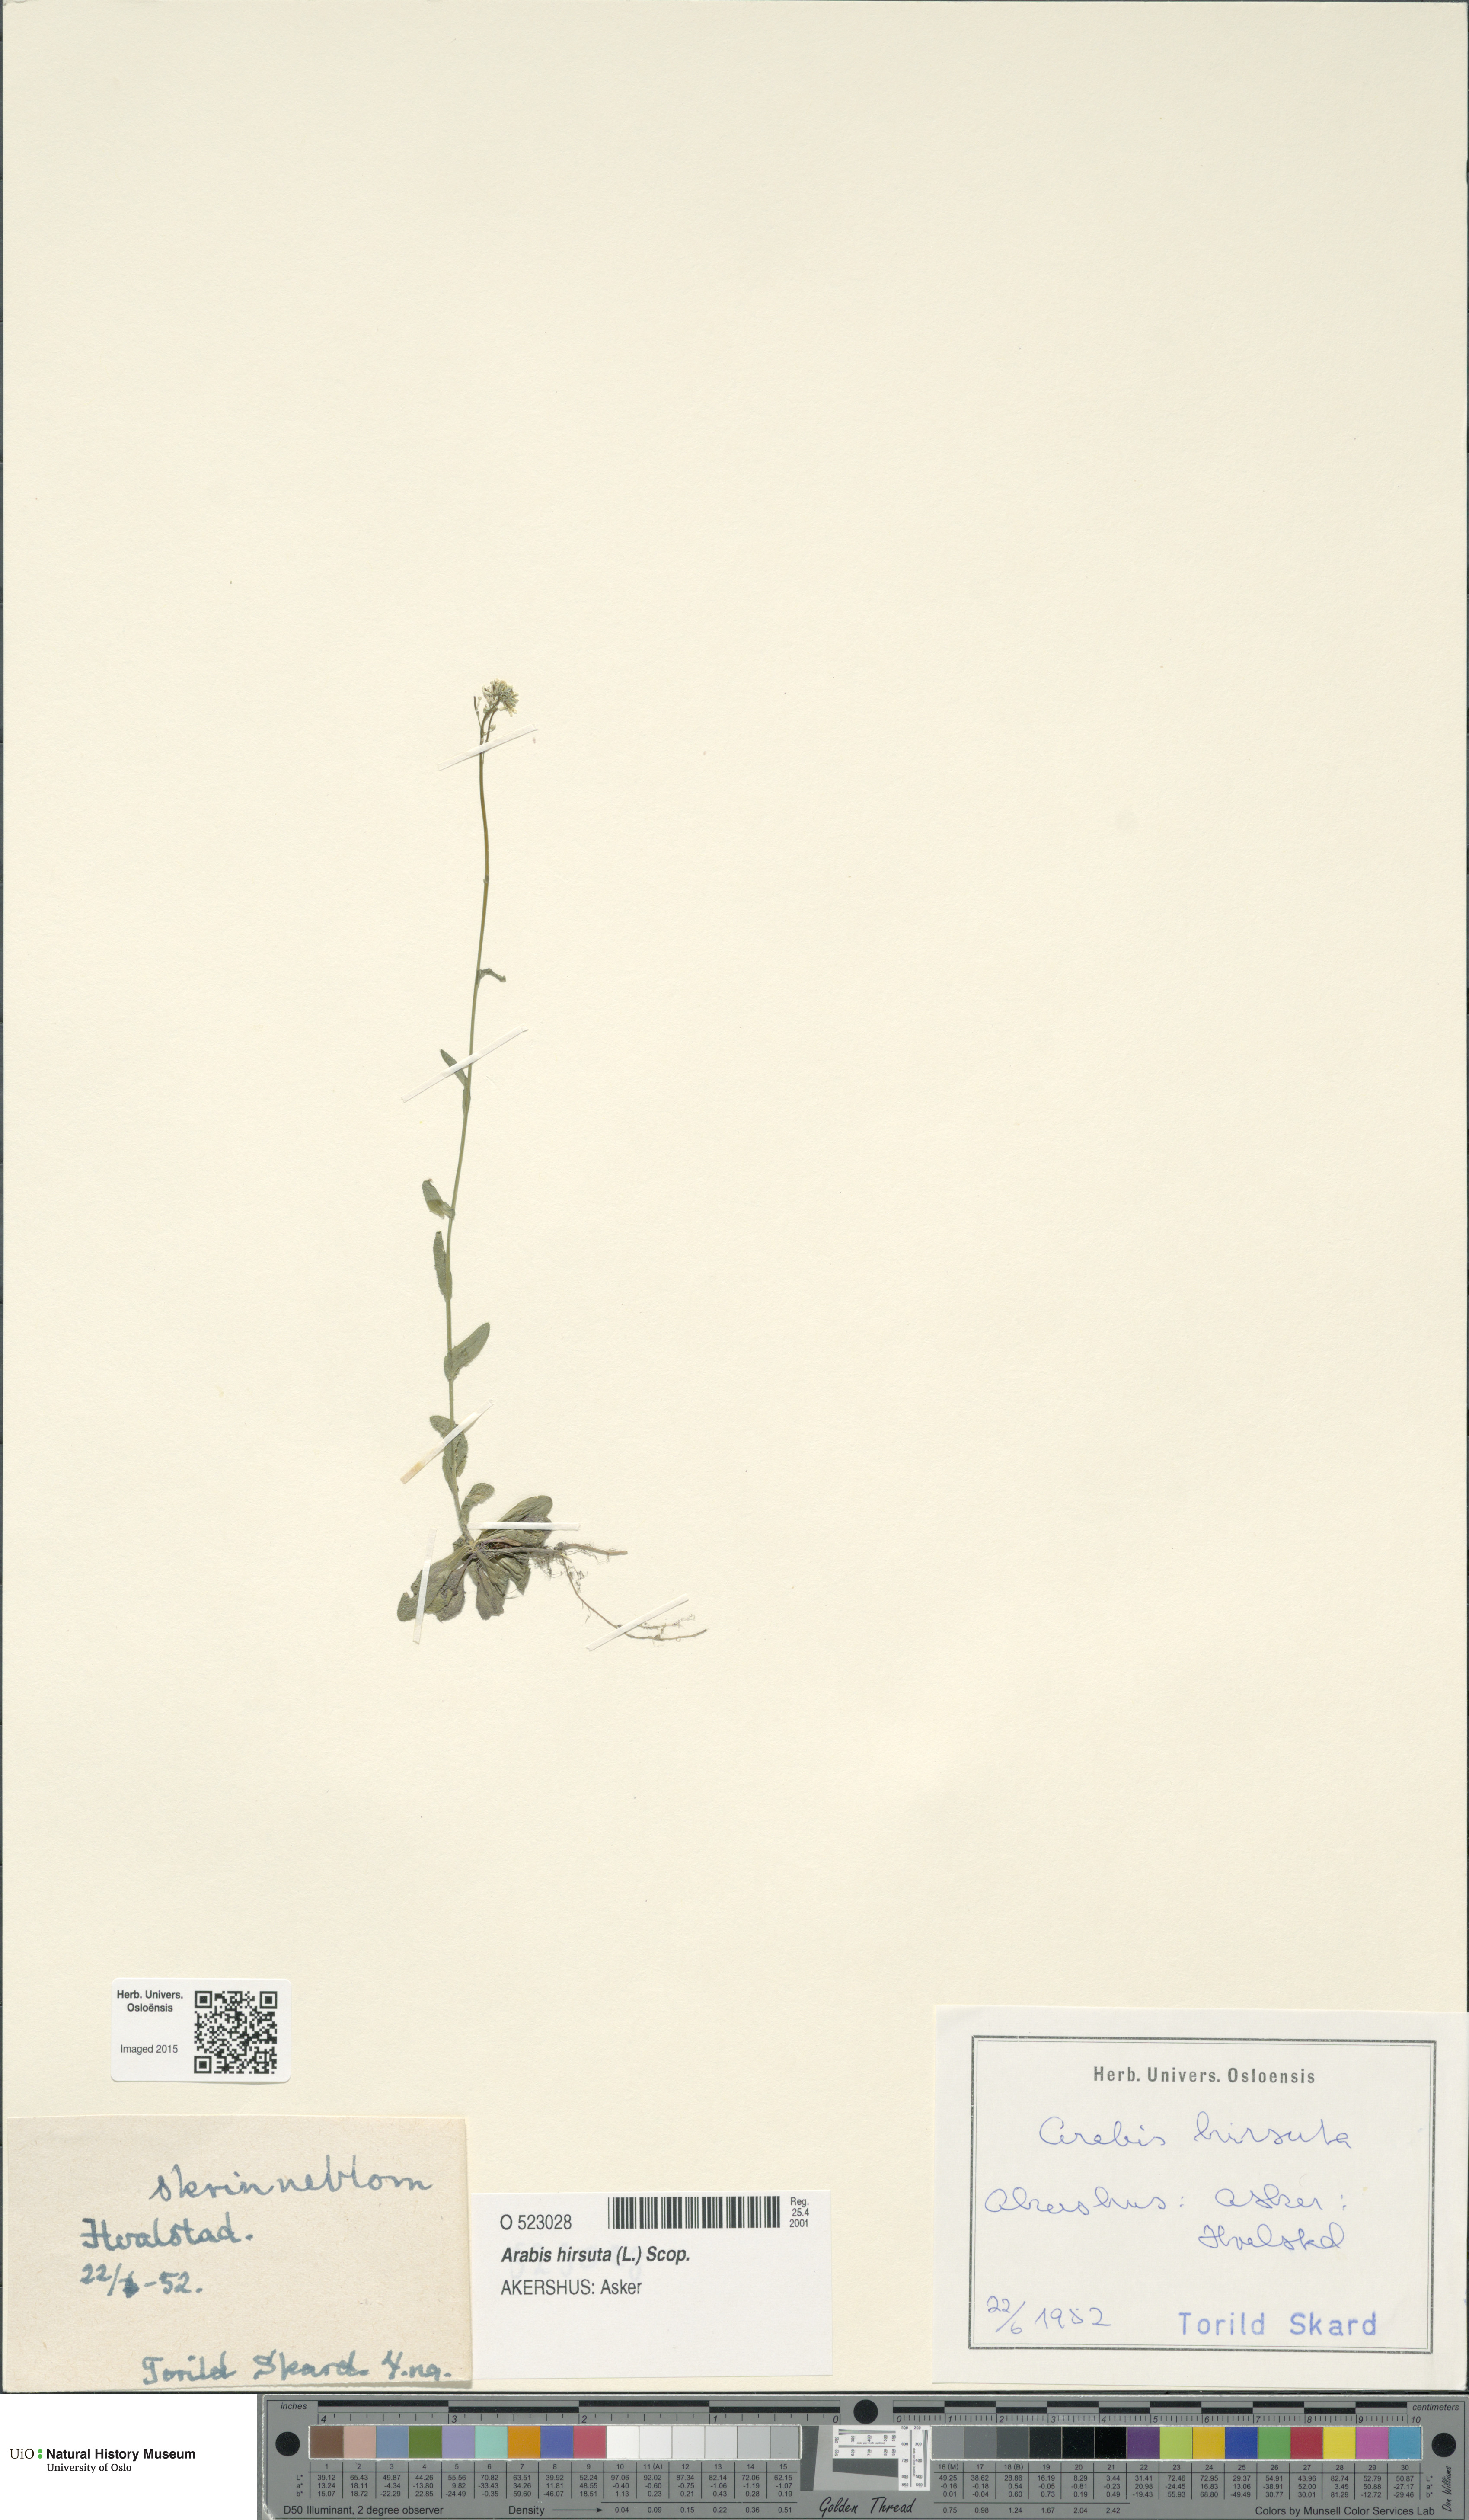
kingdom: Plantae
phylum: Tracheophyta
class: Magnoliopsida
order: Brassicales
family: Brassicaceae
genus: Arabis
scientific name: Arabis hirsuta
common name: Hairy rock-cress
